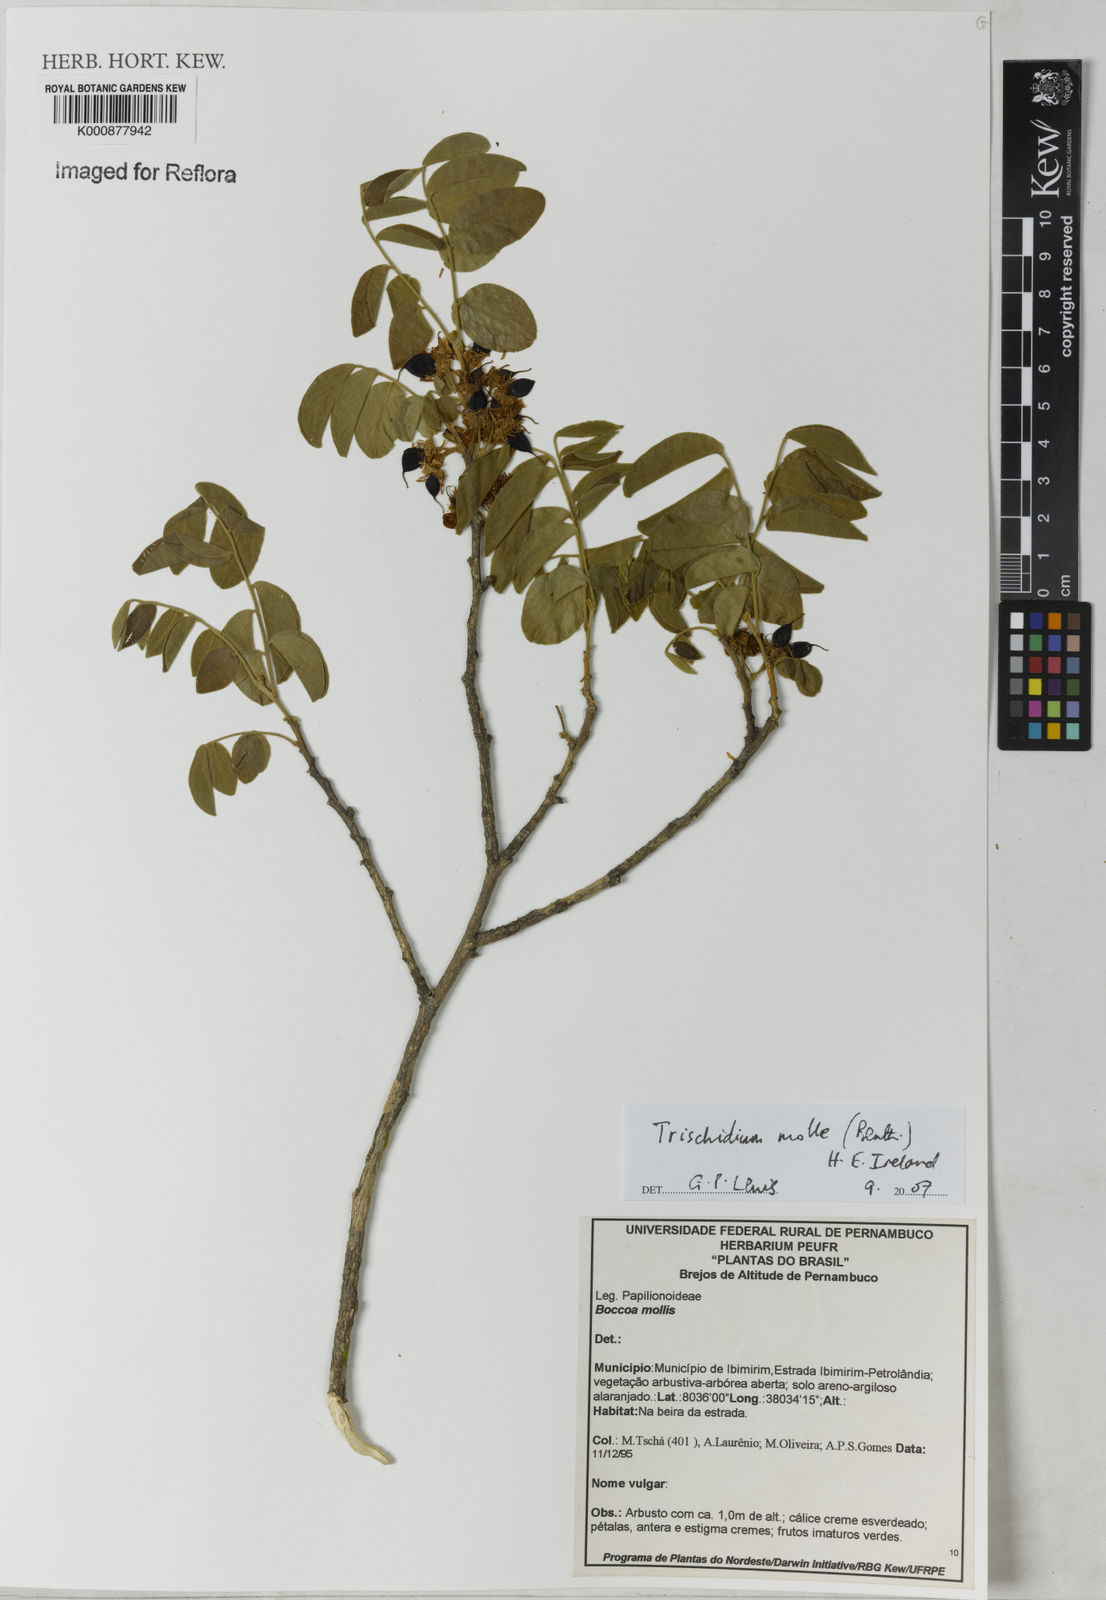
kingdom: Plantae
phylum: Tracheophyta
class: Magnoliopsida
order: Fabales
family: Fabaceae
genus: Trischidium
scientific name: Trischidium molle
